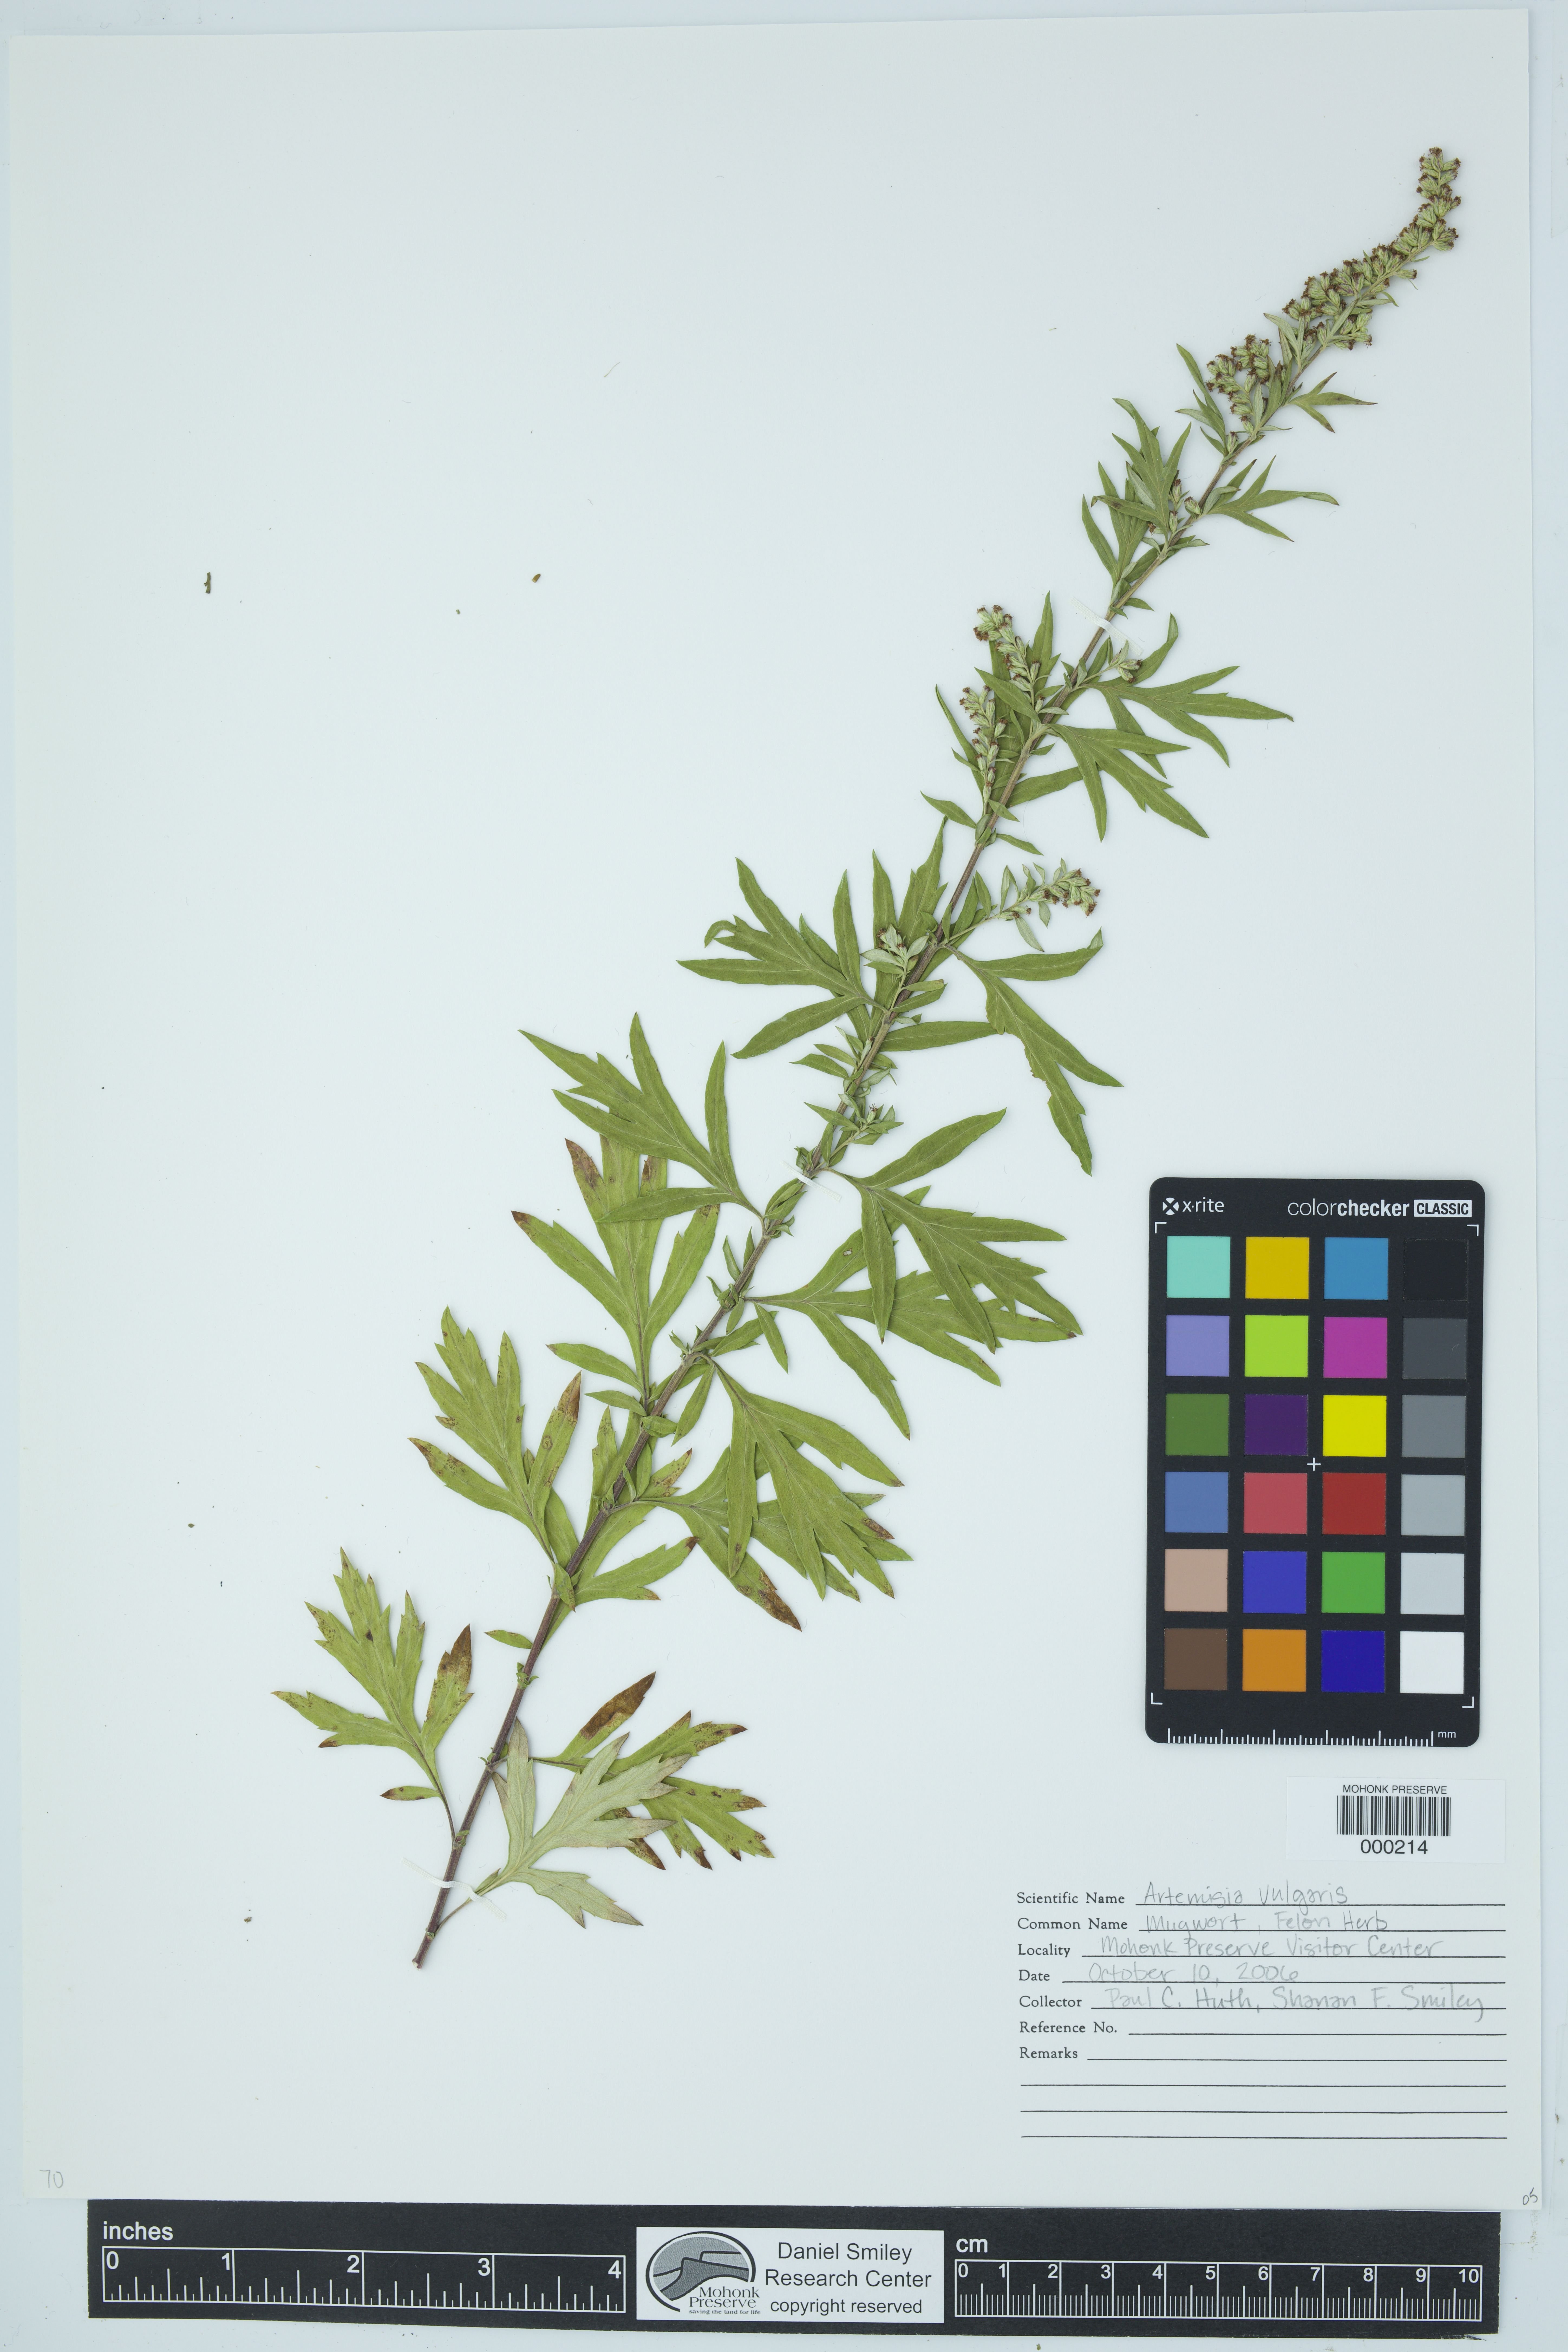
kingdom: Plantae
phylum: Tracheophyta
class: Magnoliopsida
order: Asterales
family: Asteraceae
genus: Artemisia
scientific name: Artemisia vulgaris
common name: Mugwort
